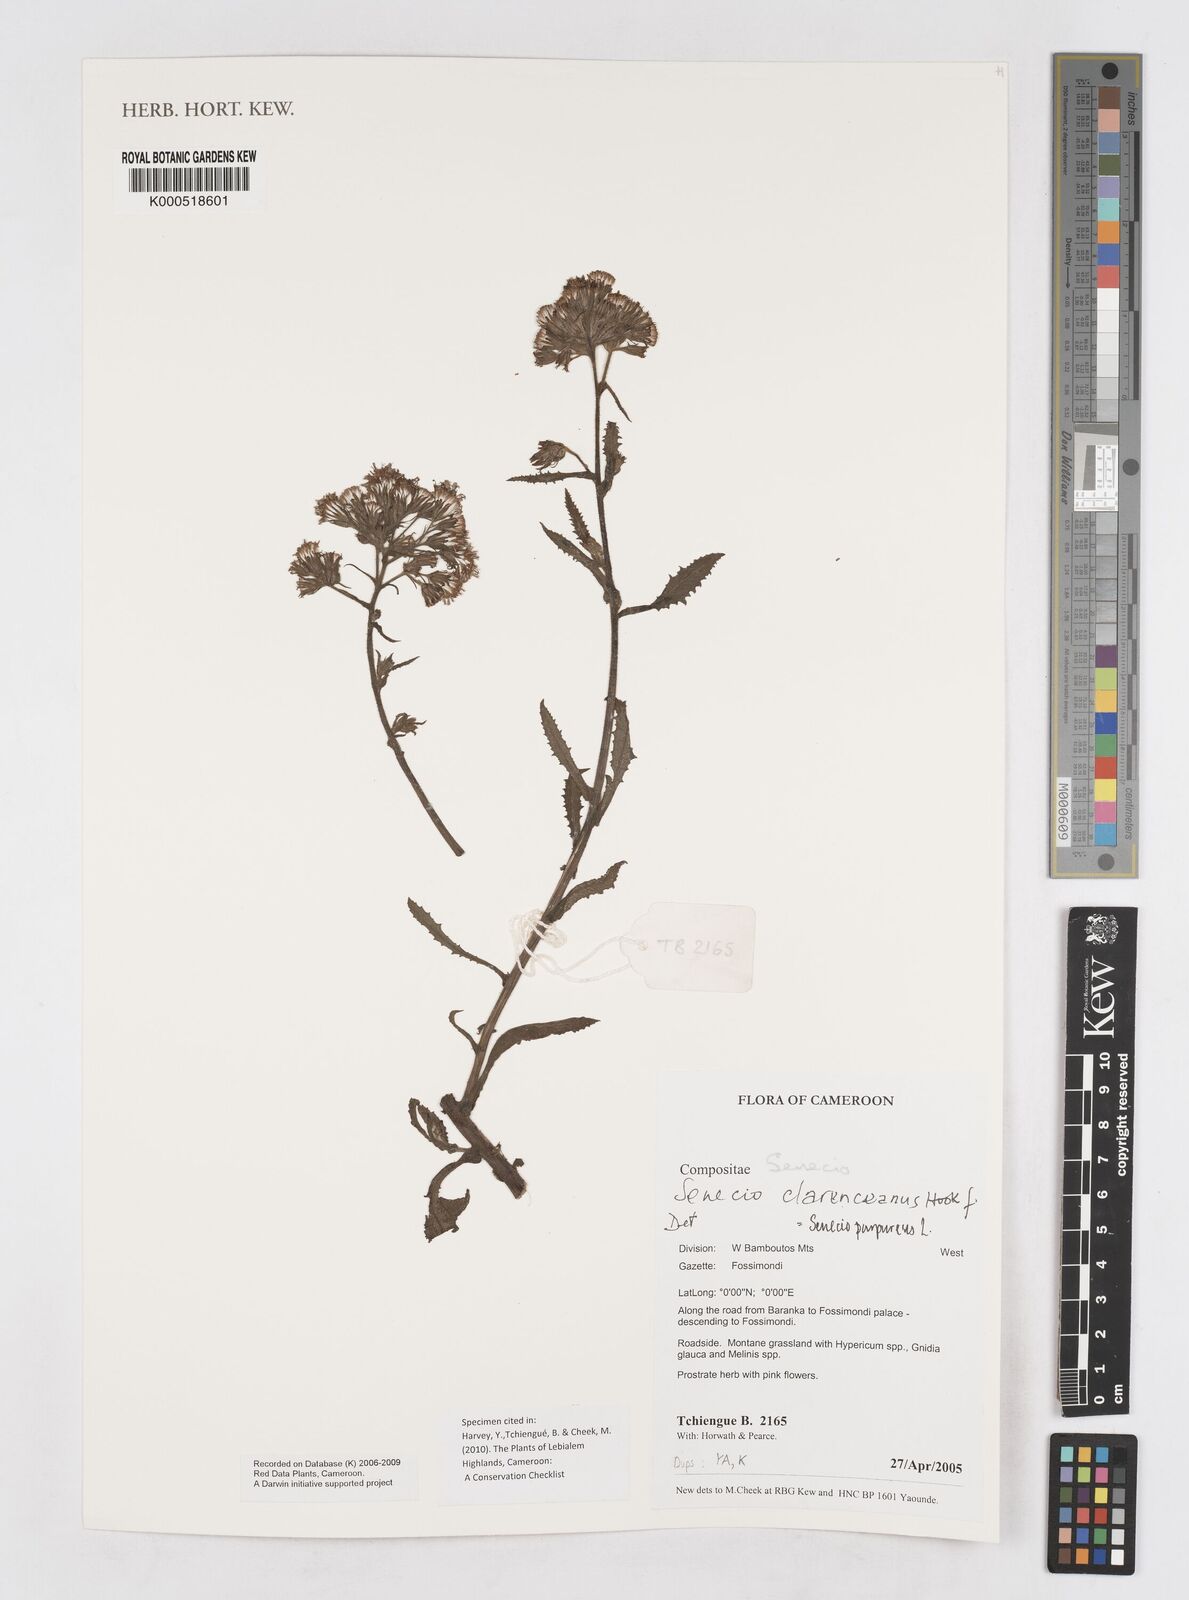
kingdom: Plantae
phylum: Tracheophyta
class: Magnoliopsida
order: Asterales
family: Asteraceae
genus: Senecio
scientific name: Senecio purpureus
